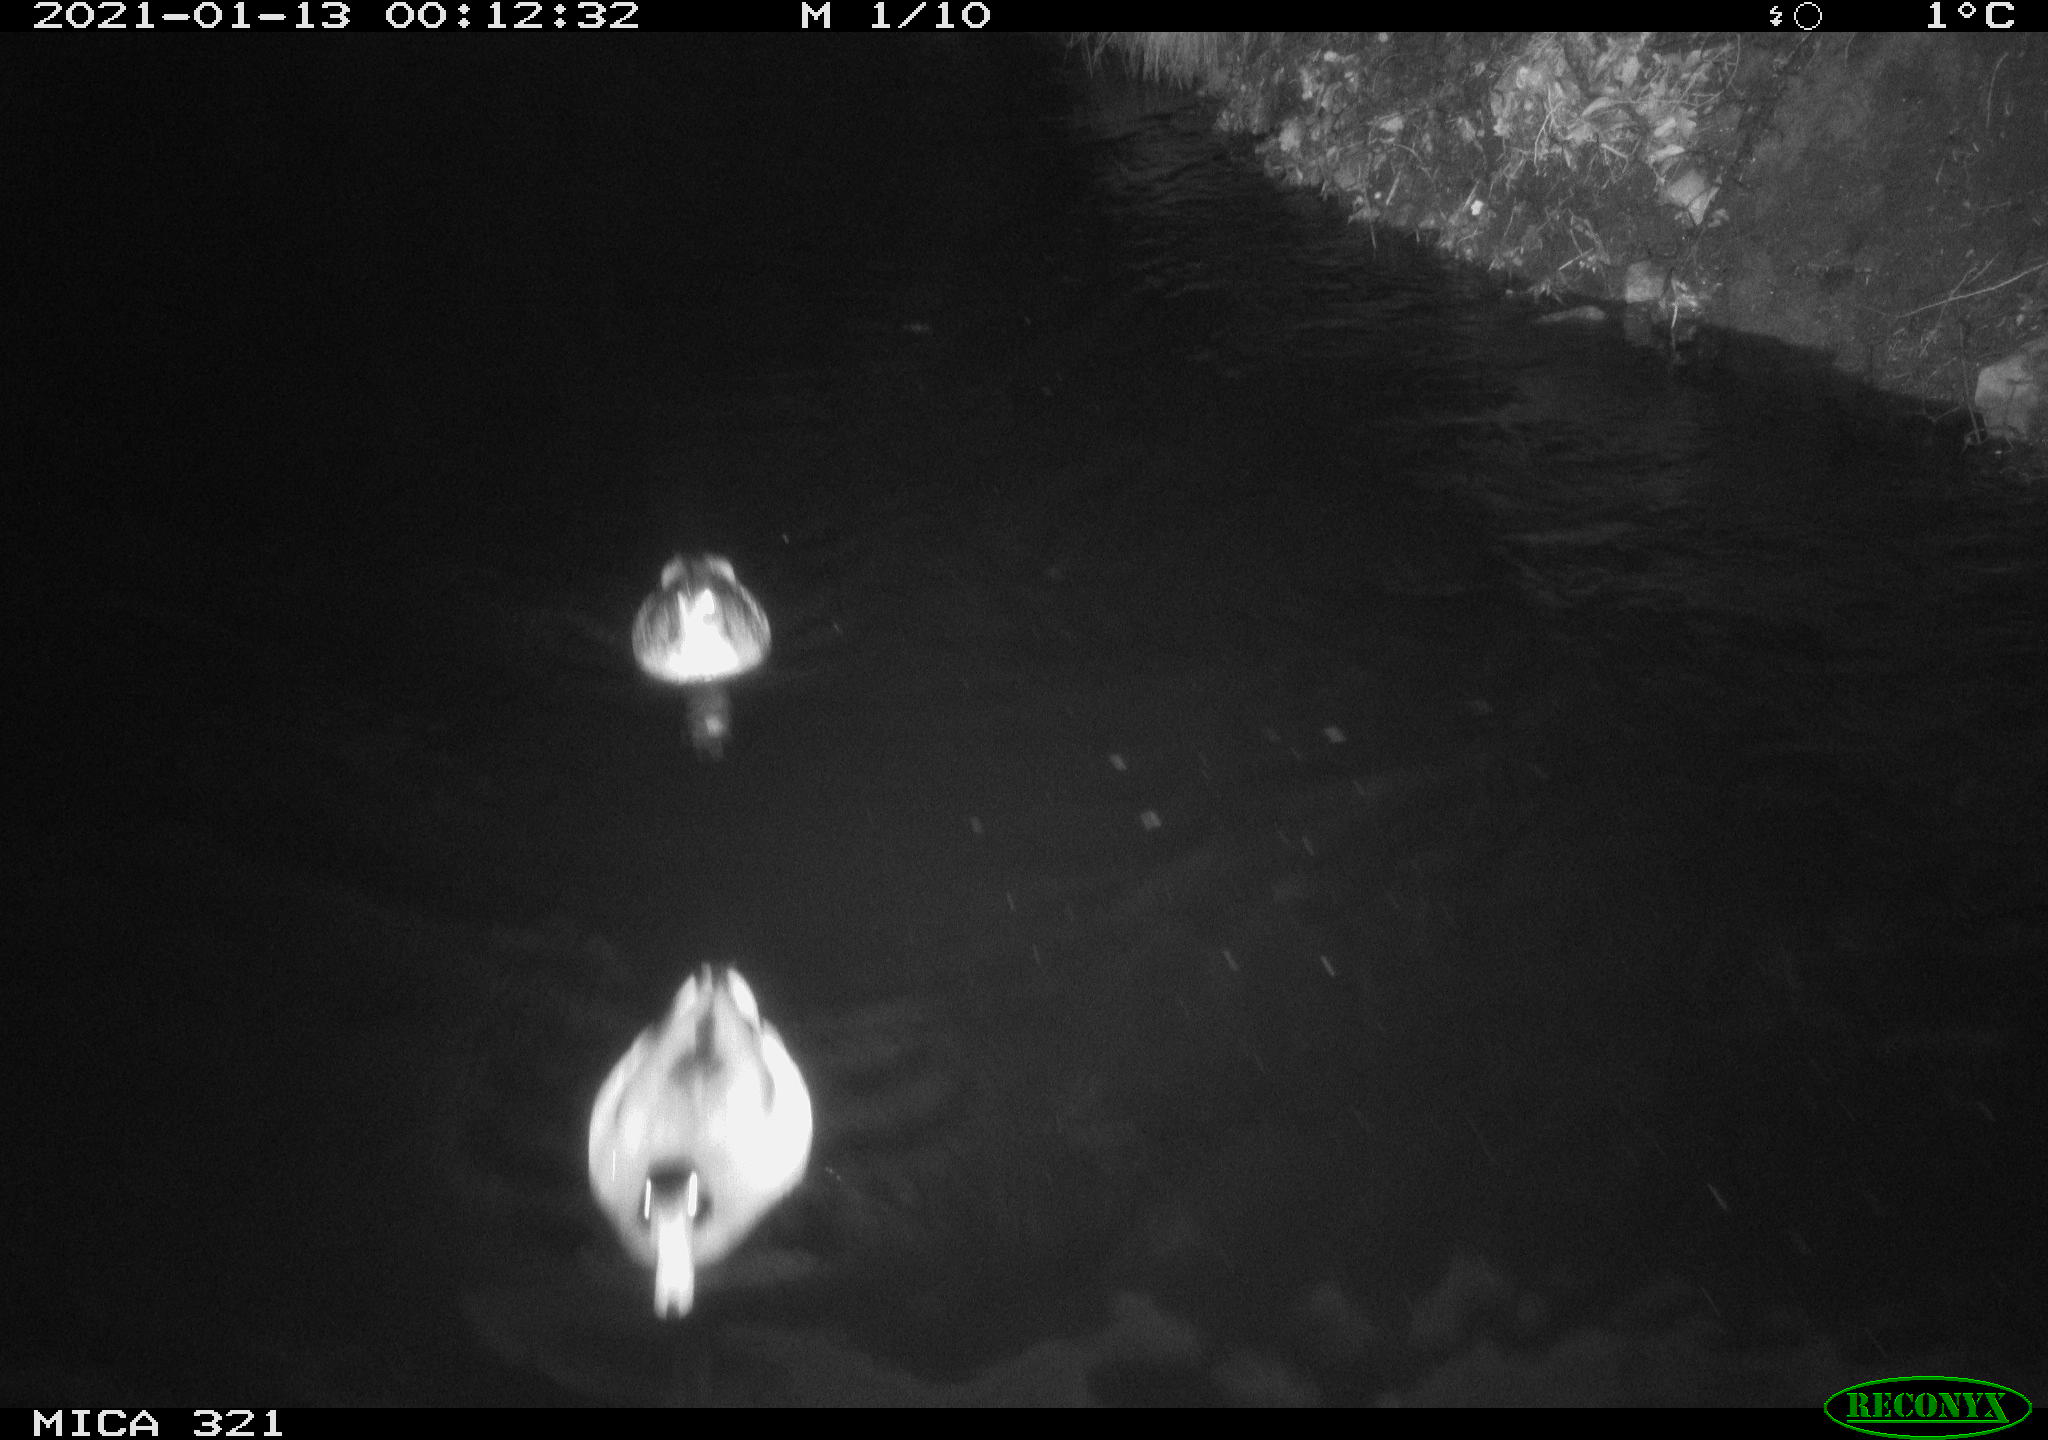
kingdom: Animalia
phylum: Chordata
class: Aves
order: Anseriformes
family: Anatidae
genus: Anas
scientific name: Anas platyrhynchos
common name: Mallard
